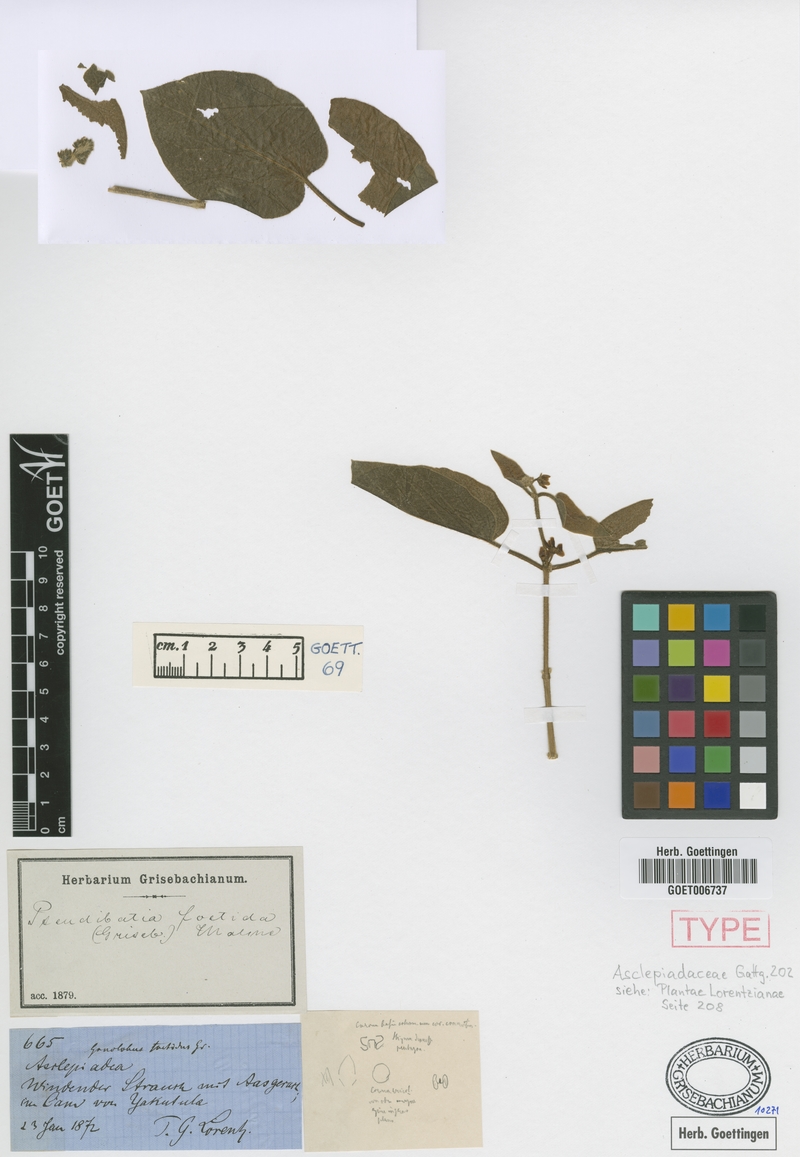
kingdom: Plantae
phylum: Tracheophyta
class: Magnoliopsida
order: Gentianales
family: Apocynaceae
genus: Ibatia
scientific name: Ibatia foetida
